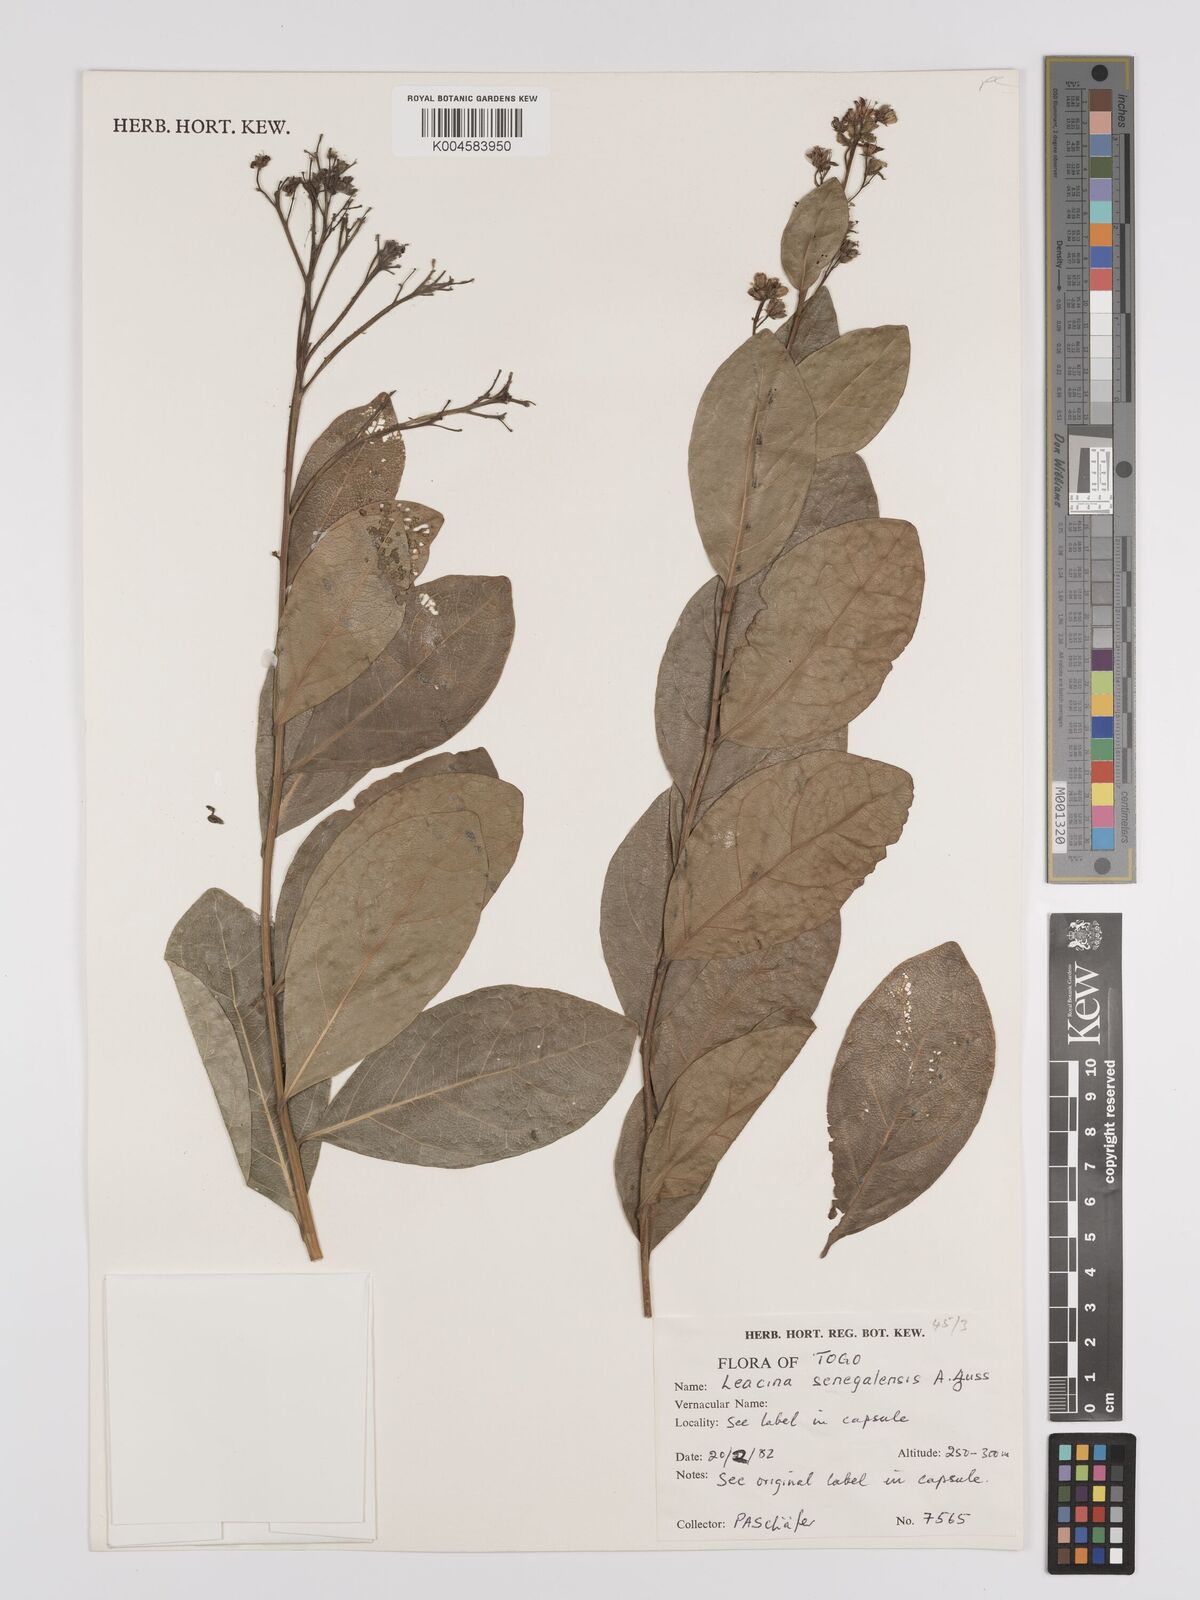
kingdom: Plantae
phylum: Tracheophyta
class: Magnoliopsida
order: Icacinales
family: Icacinaceae
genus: Icacina
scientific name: Icacina oliviformis
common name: False yam
